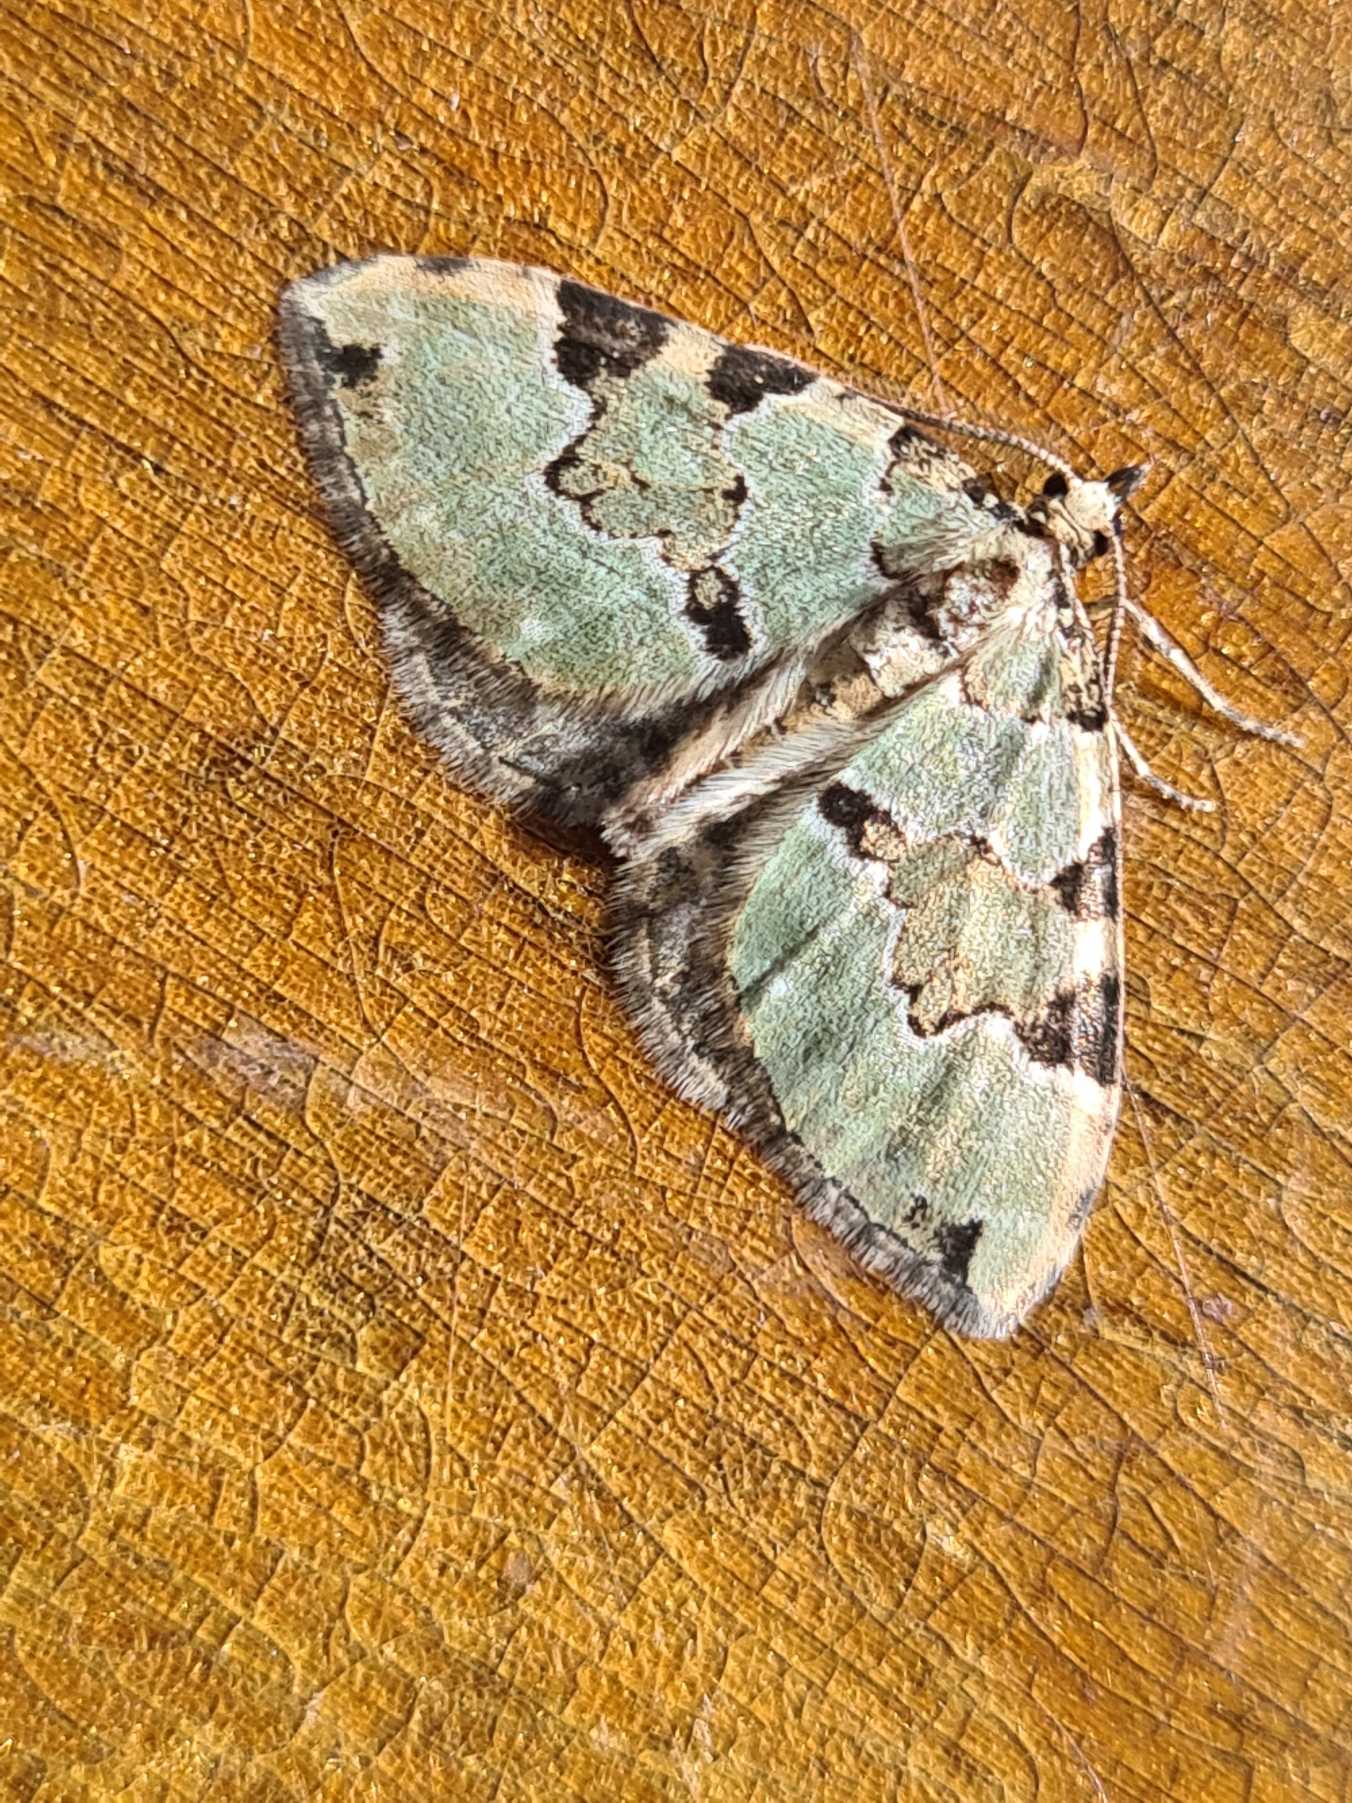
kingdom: Animalia
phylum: Arthropoda
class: Insecta
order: Lepidoptera
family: Geometridae
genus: Colostygia
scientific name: Colostygia pectinataria
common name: Grøn bladmåler
